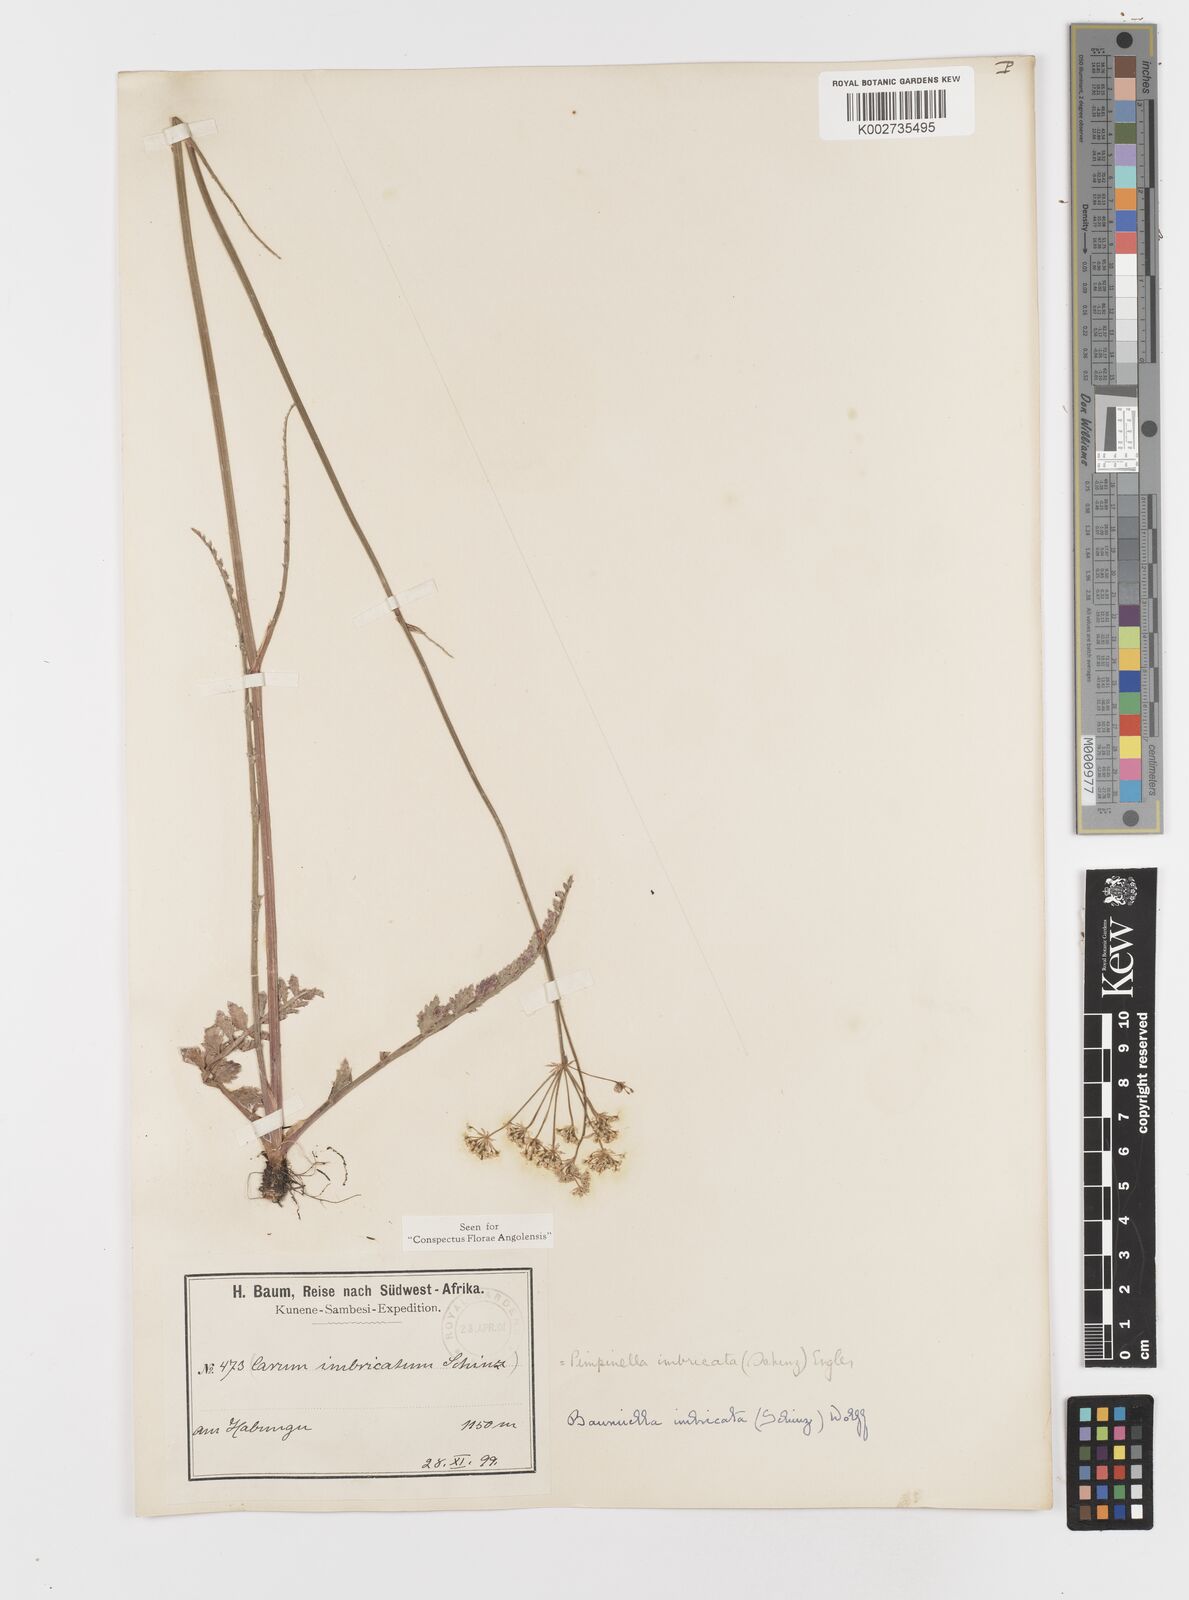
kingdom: Plantae
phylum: Tracheophyta
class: Magnoliopsida
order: Apiales
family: Apiaceae
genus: Berula
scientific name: Berula imbricata
